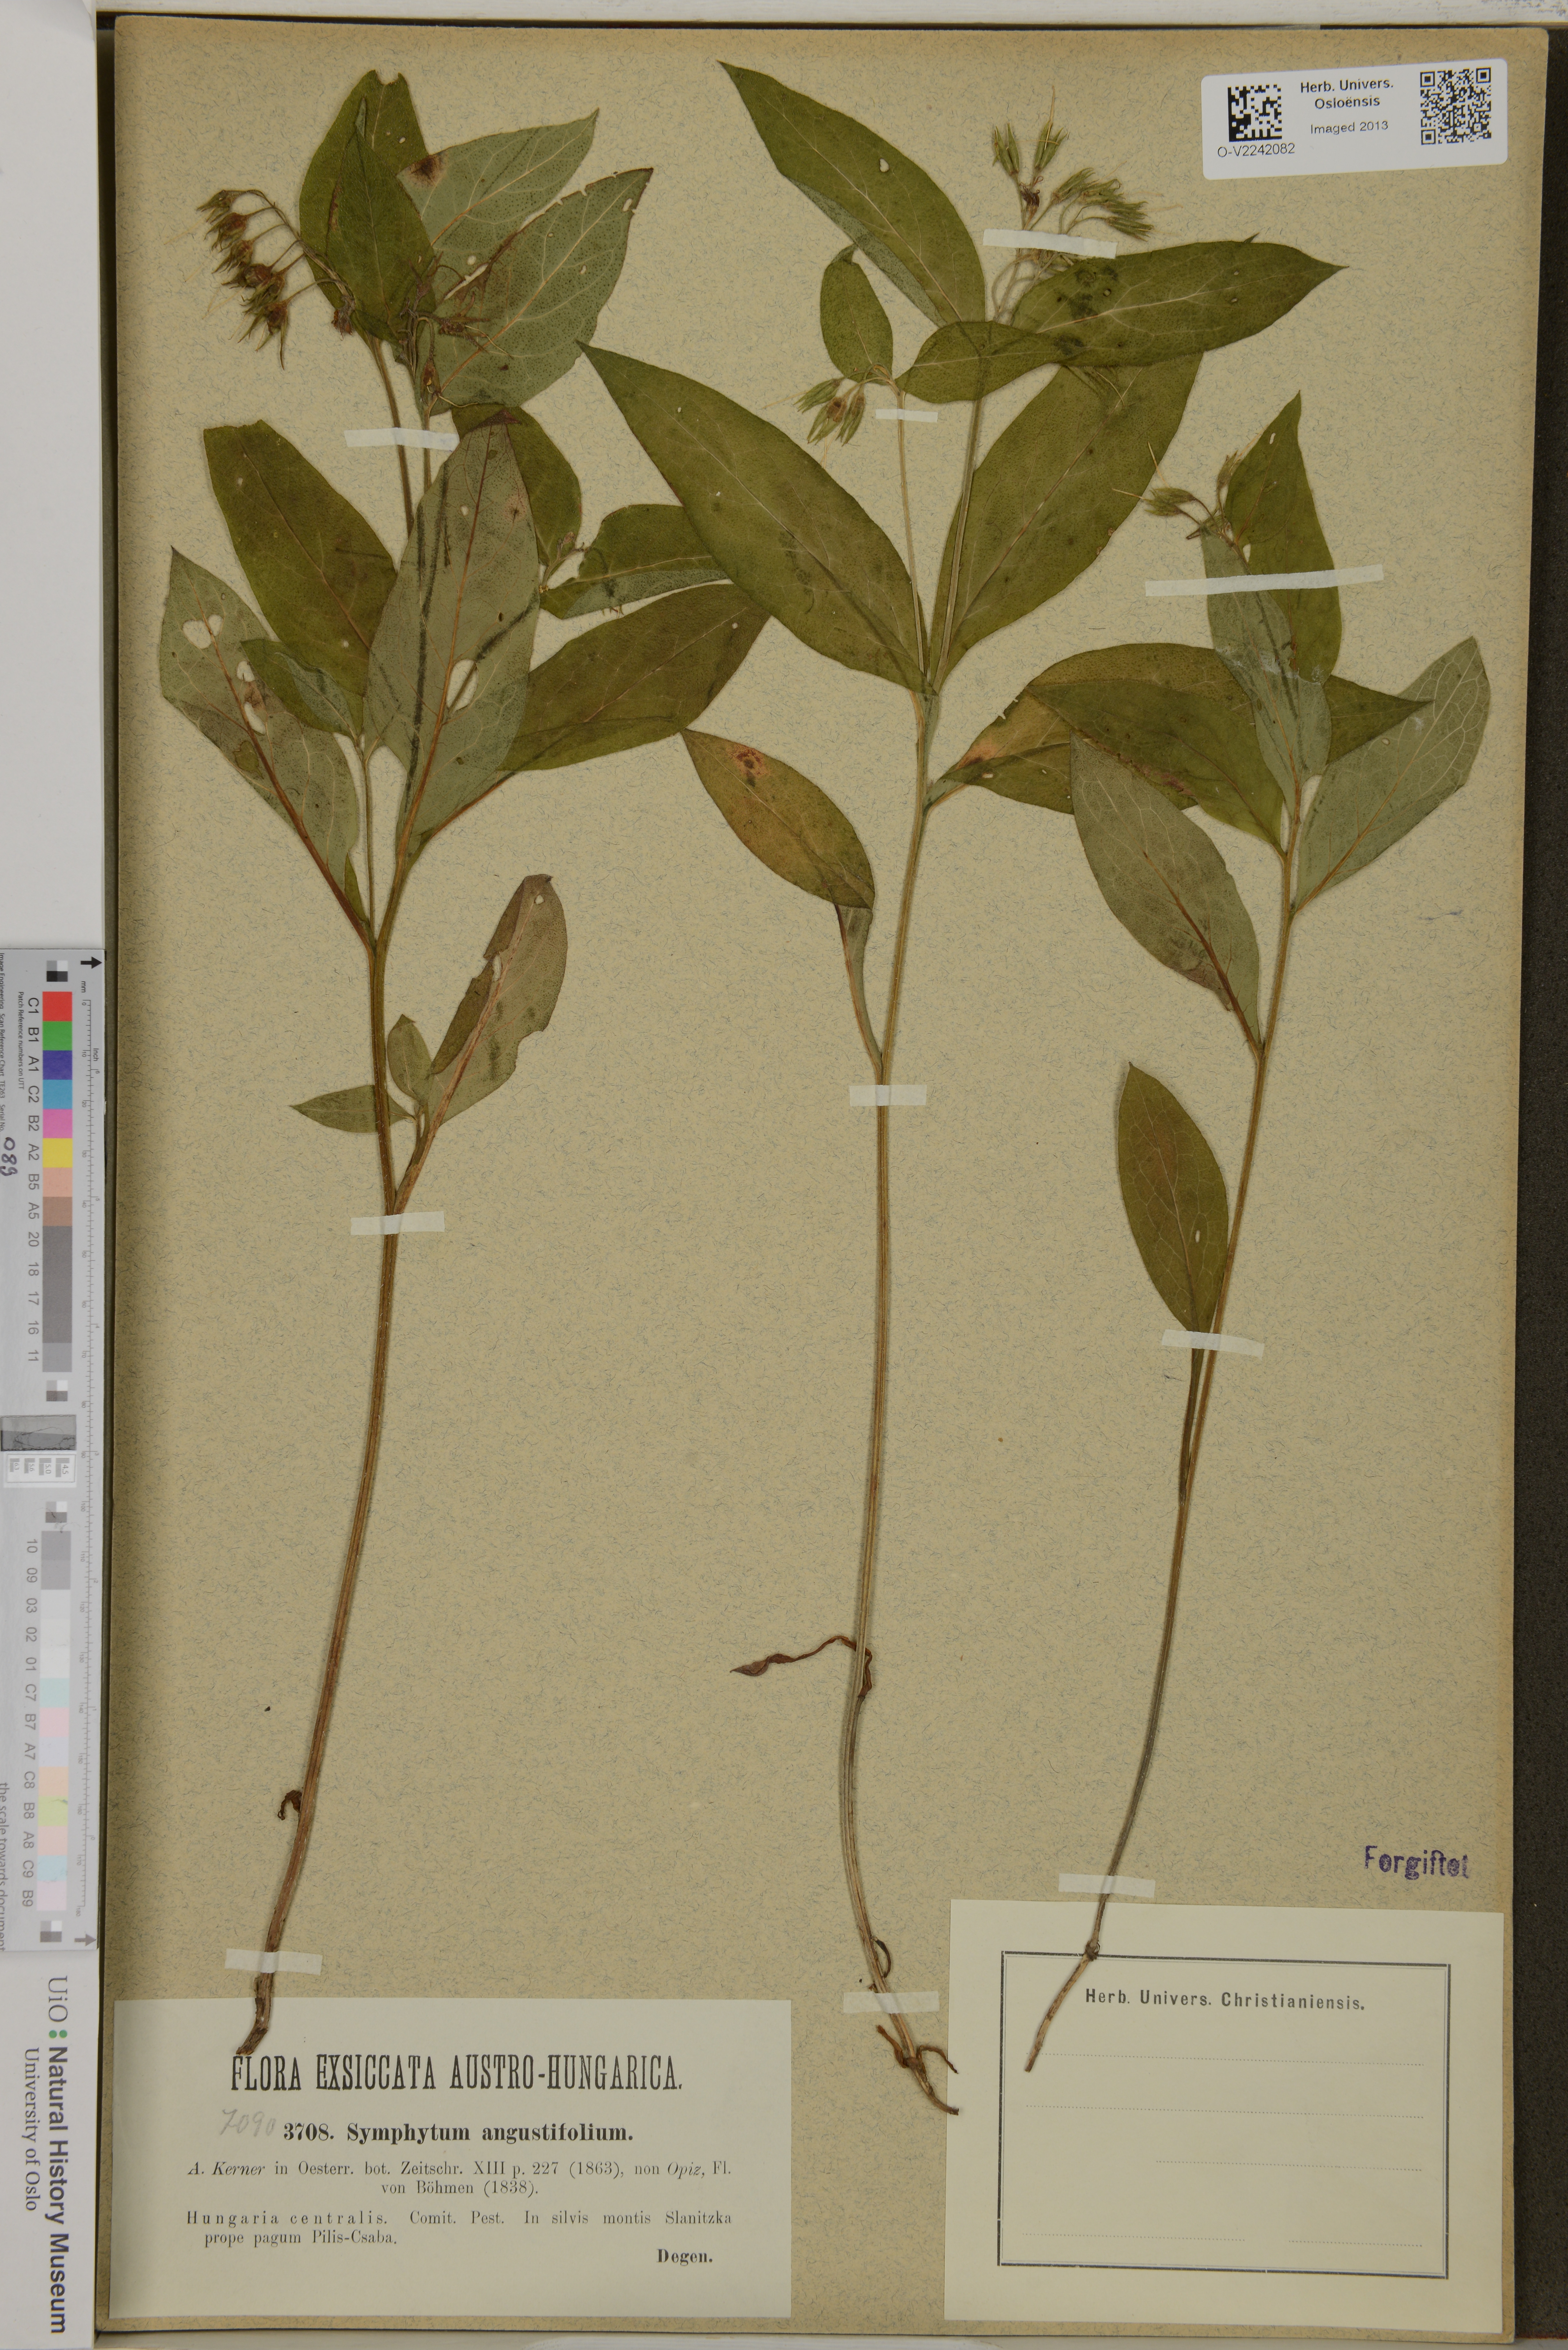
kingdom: Plantae
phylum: Tracheophyta
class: Magnoliopsida
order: Boraginales
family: Boraginaceae
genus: Symphytum
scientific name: Symphytum tuberosum
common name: Tuberous comfrey
